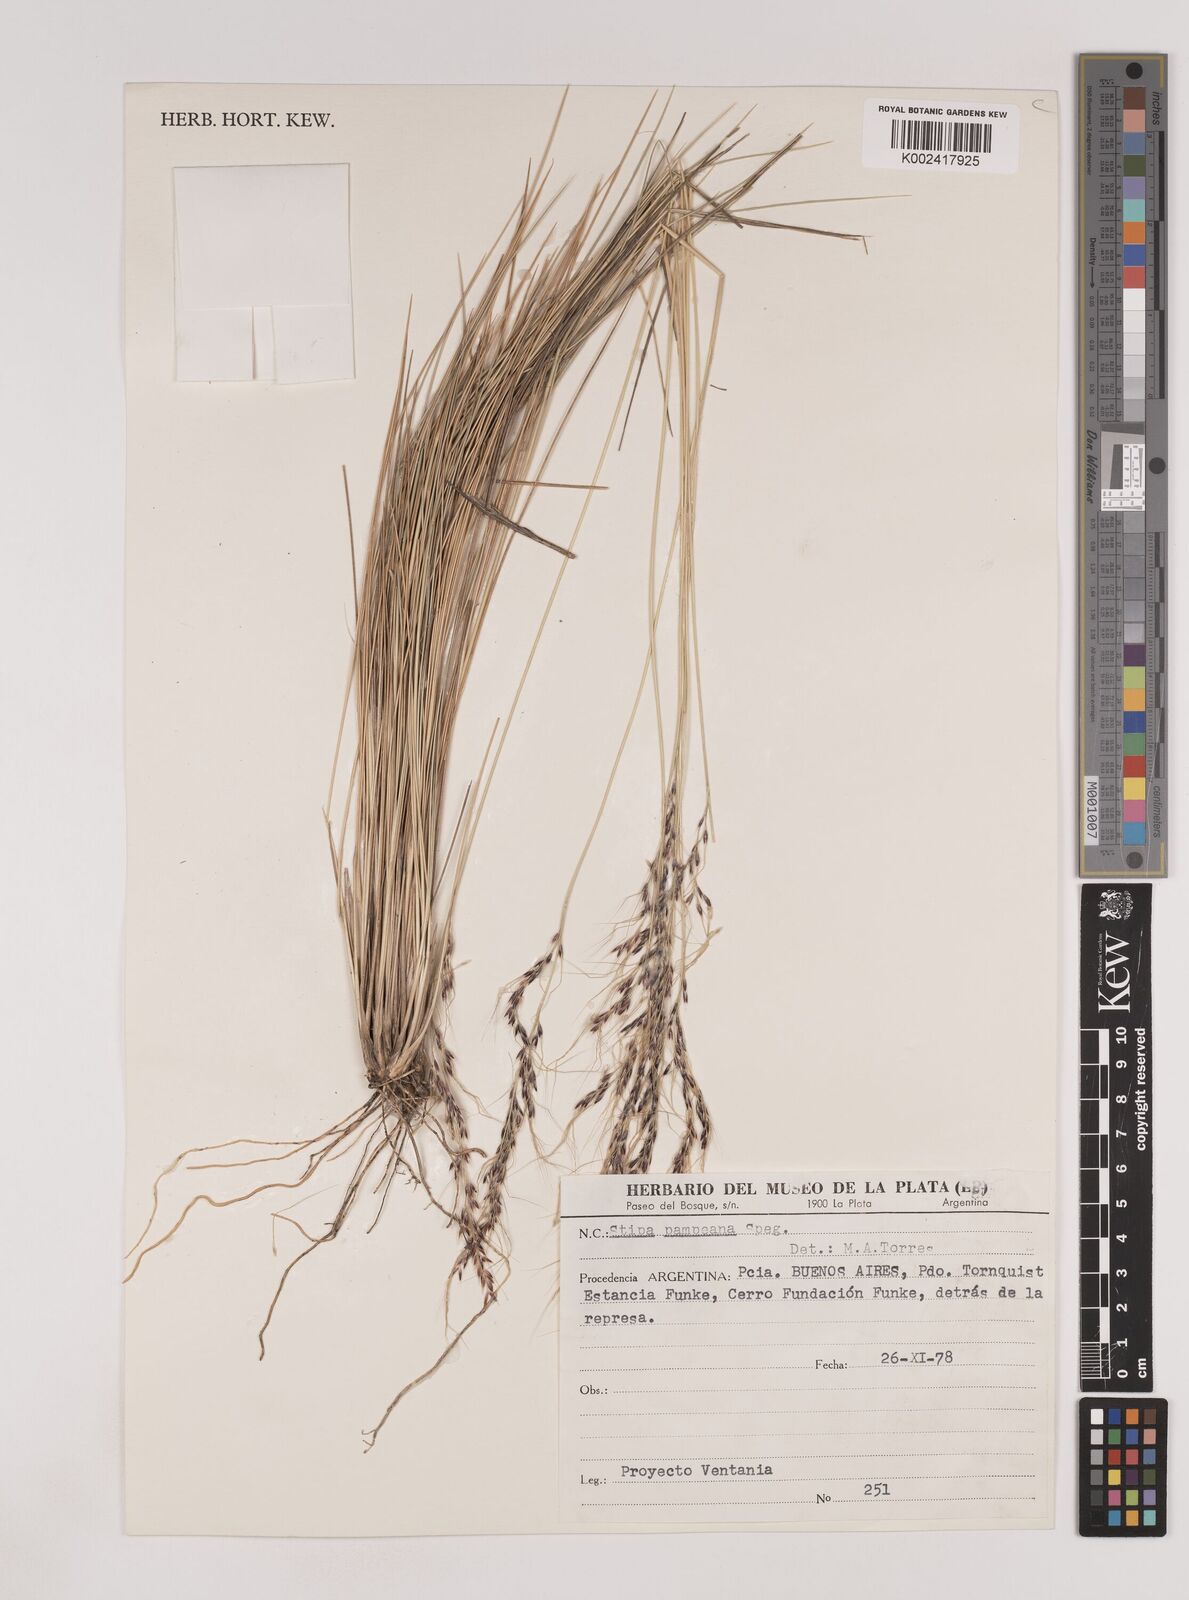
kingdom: Plantae
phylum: Tracheophyta
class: Liliopsida
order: Poales
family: Poaceae
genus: Nassella
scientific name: Nassella pampeana
